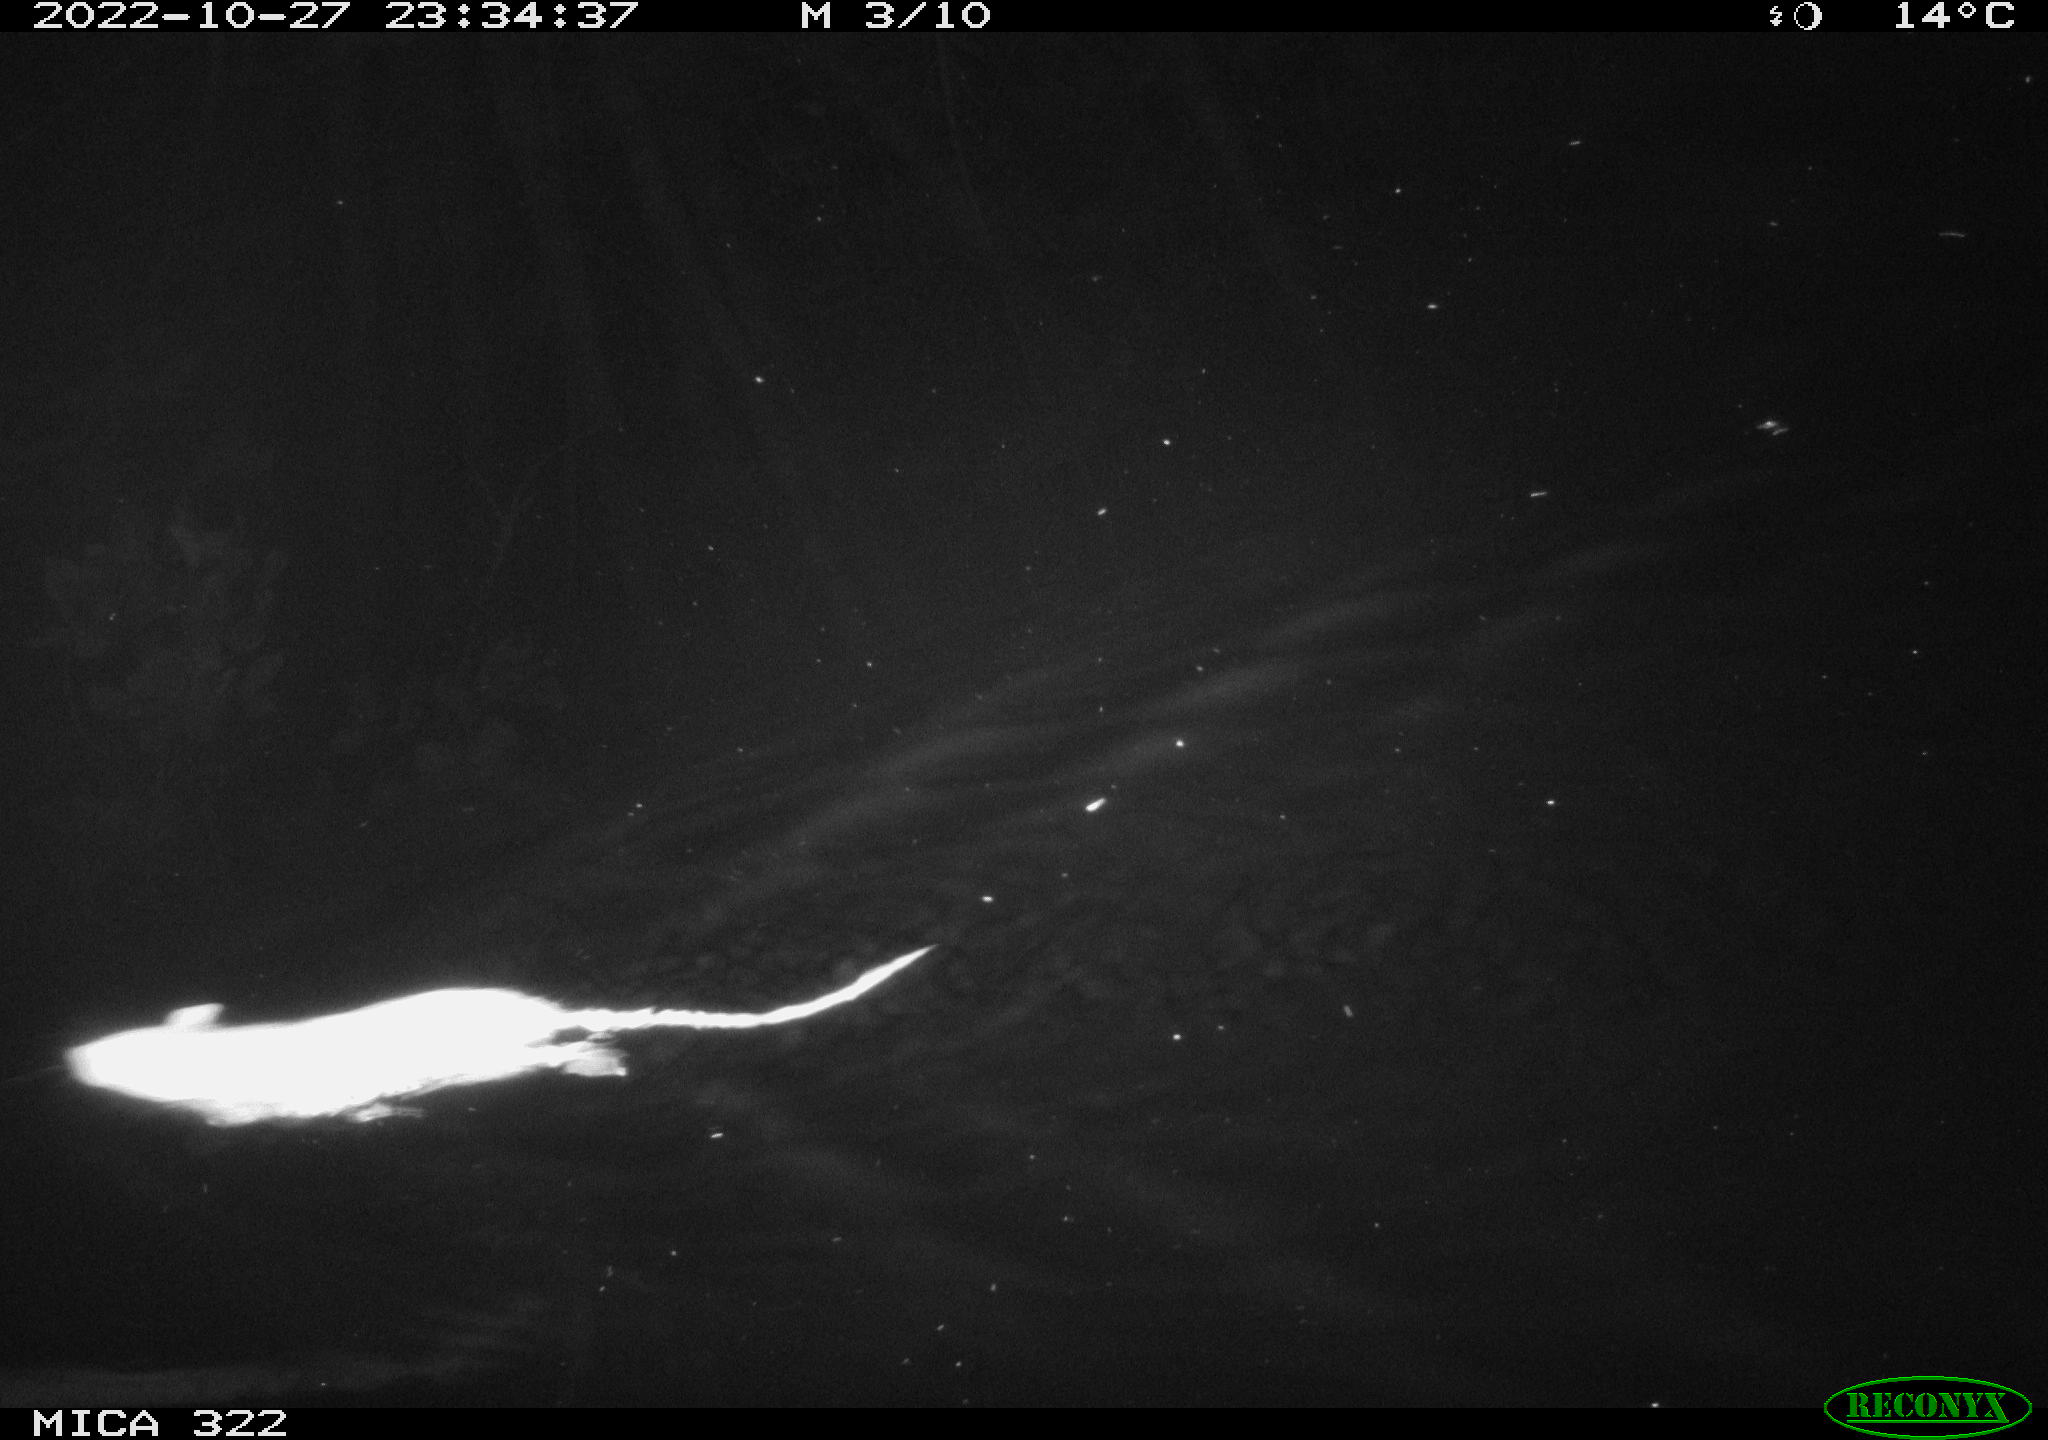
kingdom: Animalia
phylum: Chordata
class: Mammalia
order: Rodentia
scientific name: Rodentia
